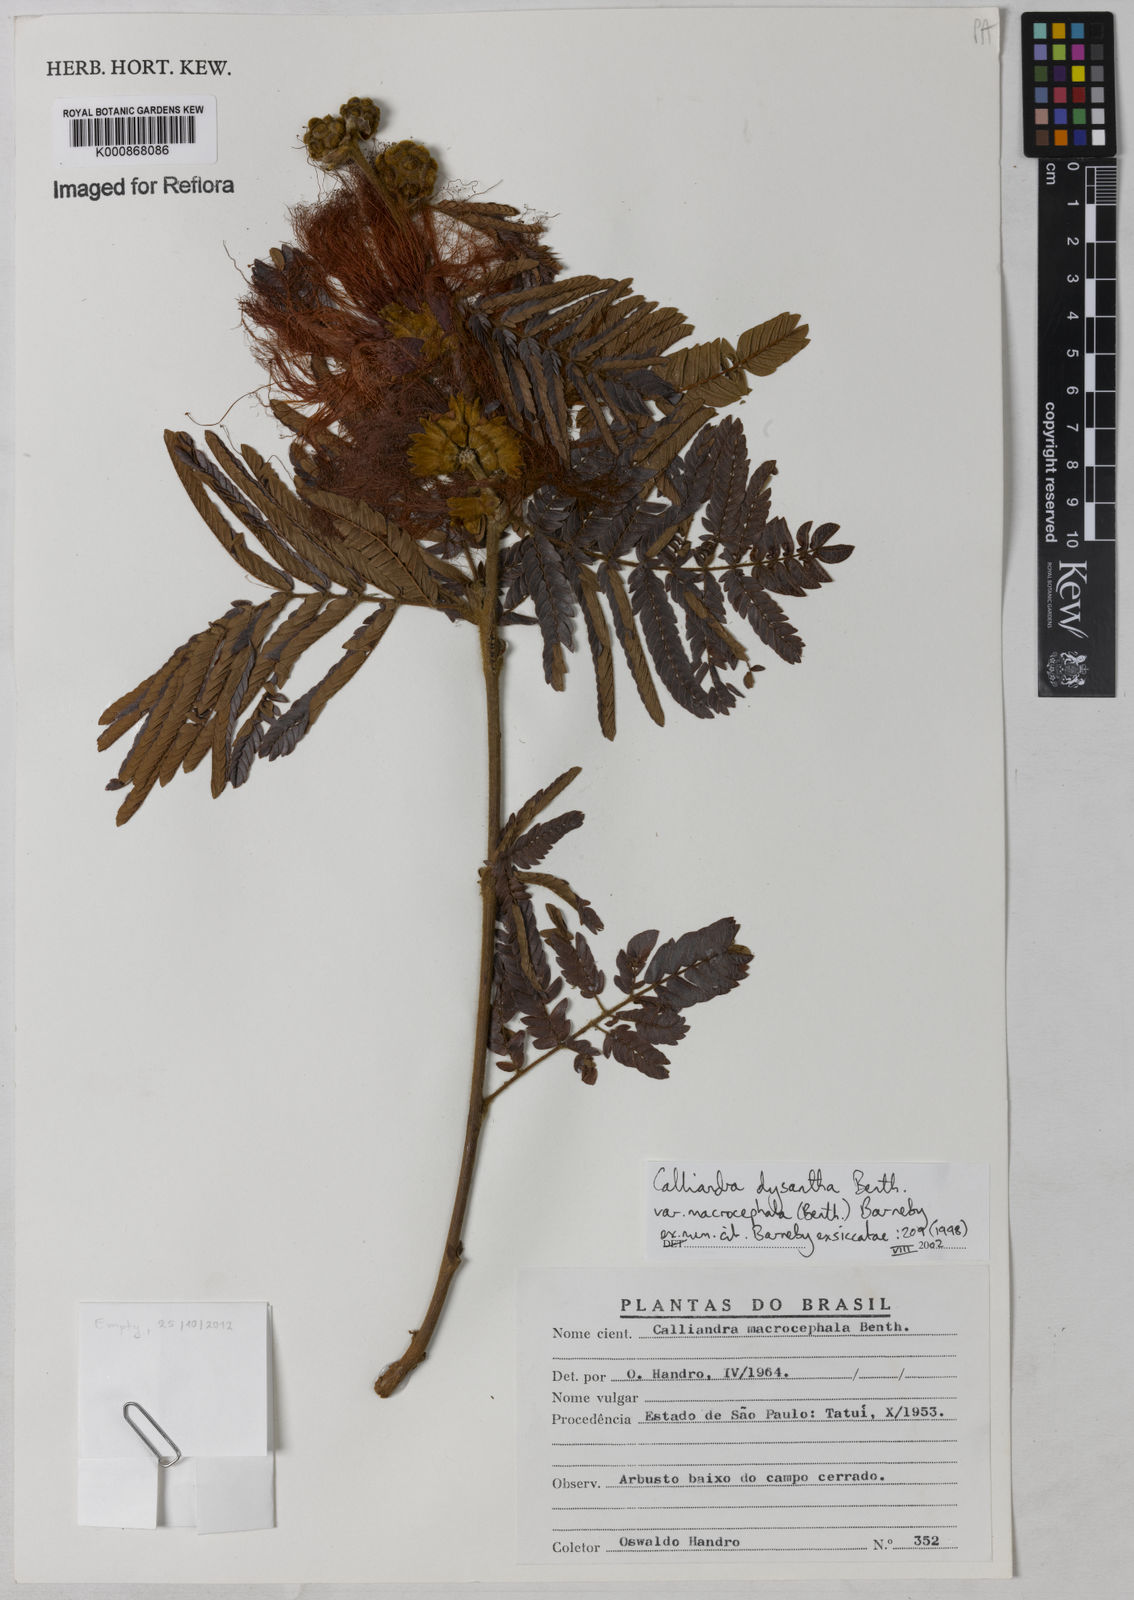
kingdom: Plantae
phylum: Tracheophyta
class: Magnoliopsida
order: Fabales
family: Fabaceae
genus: Calliandra
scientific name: Calliandra dysantha
